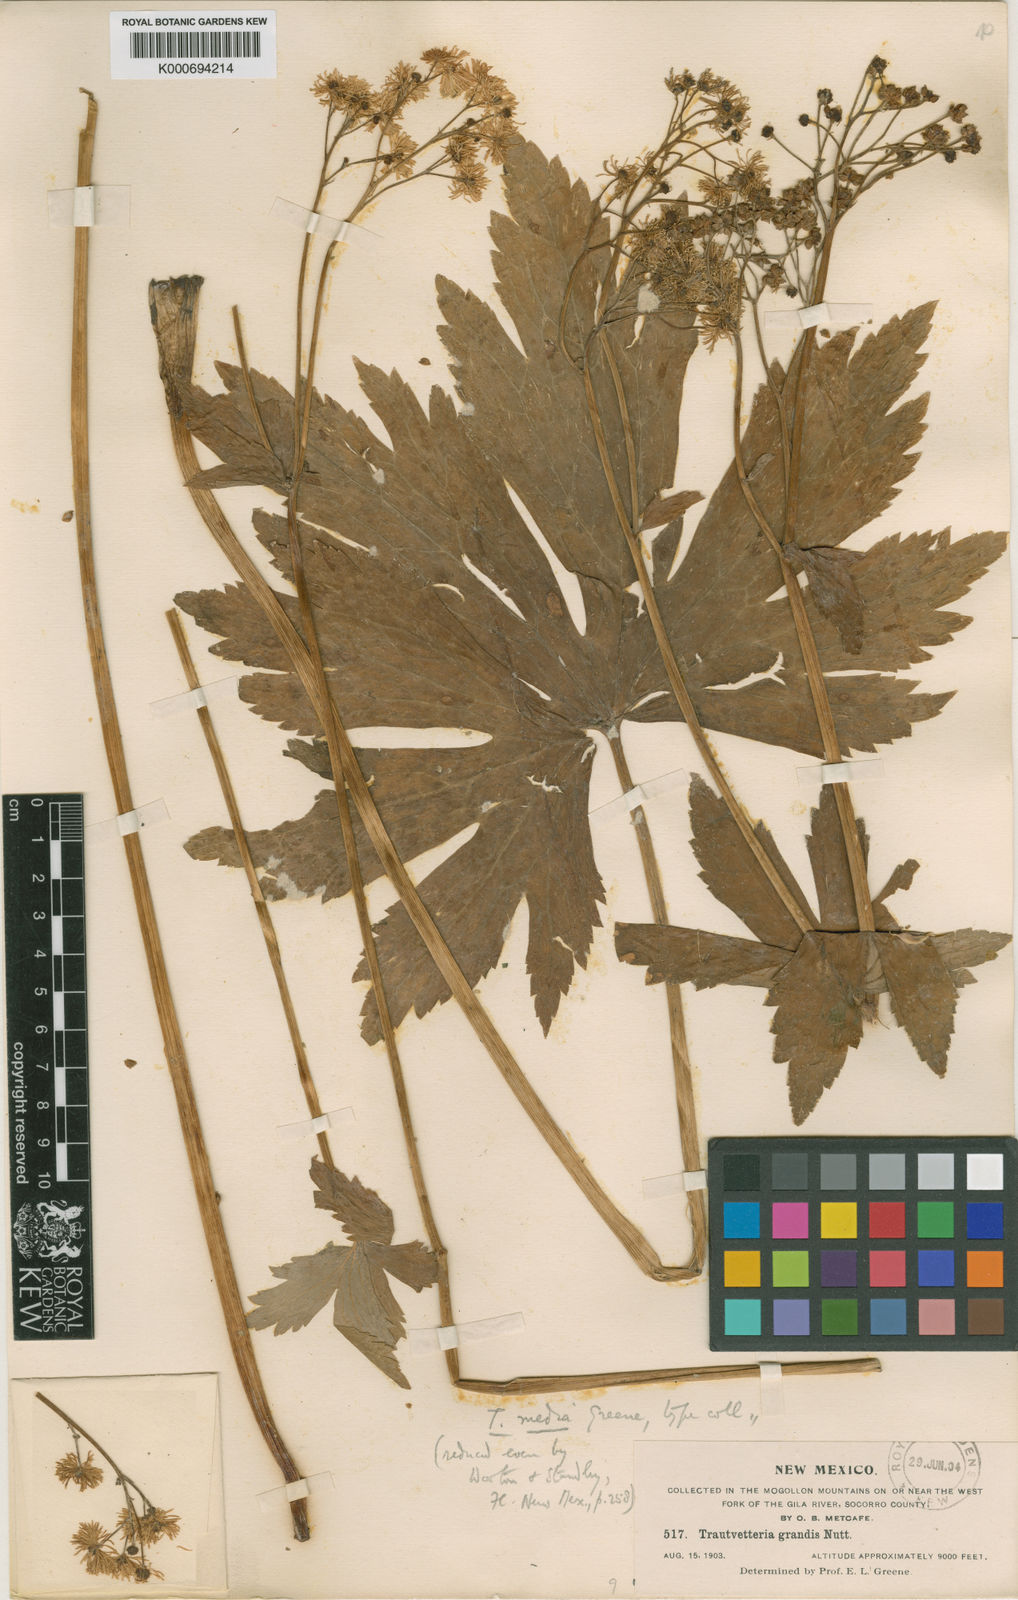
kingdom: Plantae
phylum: Tracheophyta
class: Magnoliopsida
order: Ranunculales
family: Ranunculaceae
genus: Trautvetteria
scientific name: Trautvetteria carolinensis
